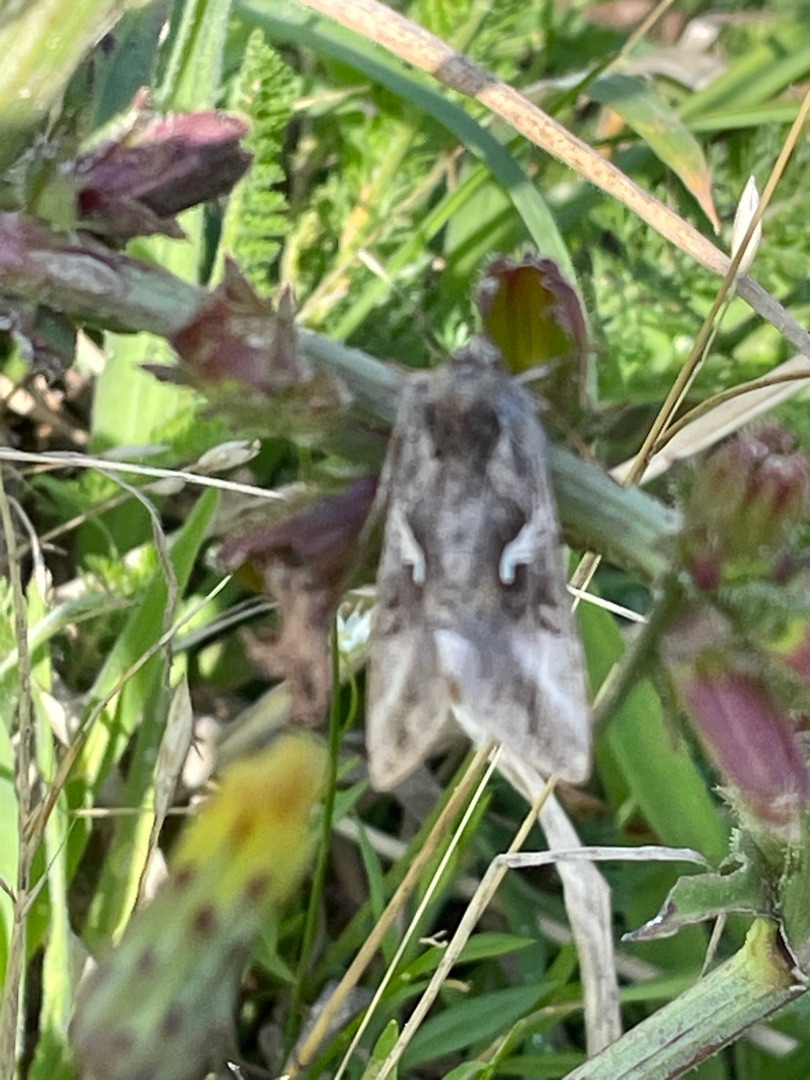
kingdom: Animalia
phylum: Arthropoda
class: Insecta
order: Lepidoptera
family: Noctuidae
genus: Autographa
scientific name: Autographa gamma
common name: Gammaugle
